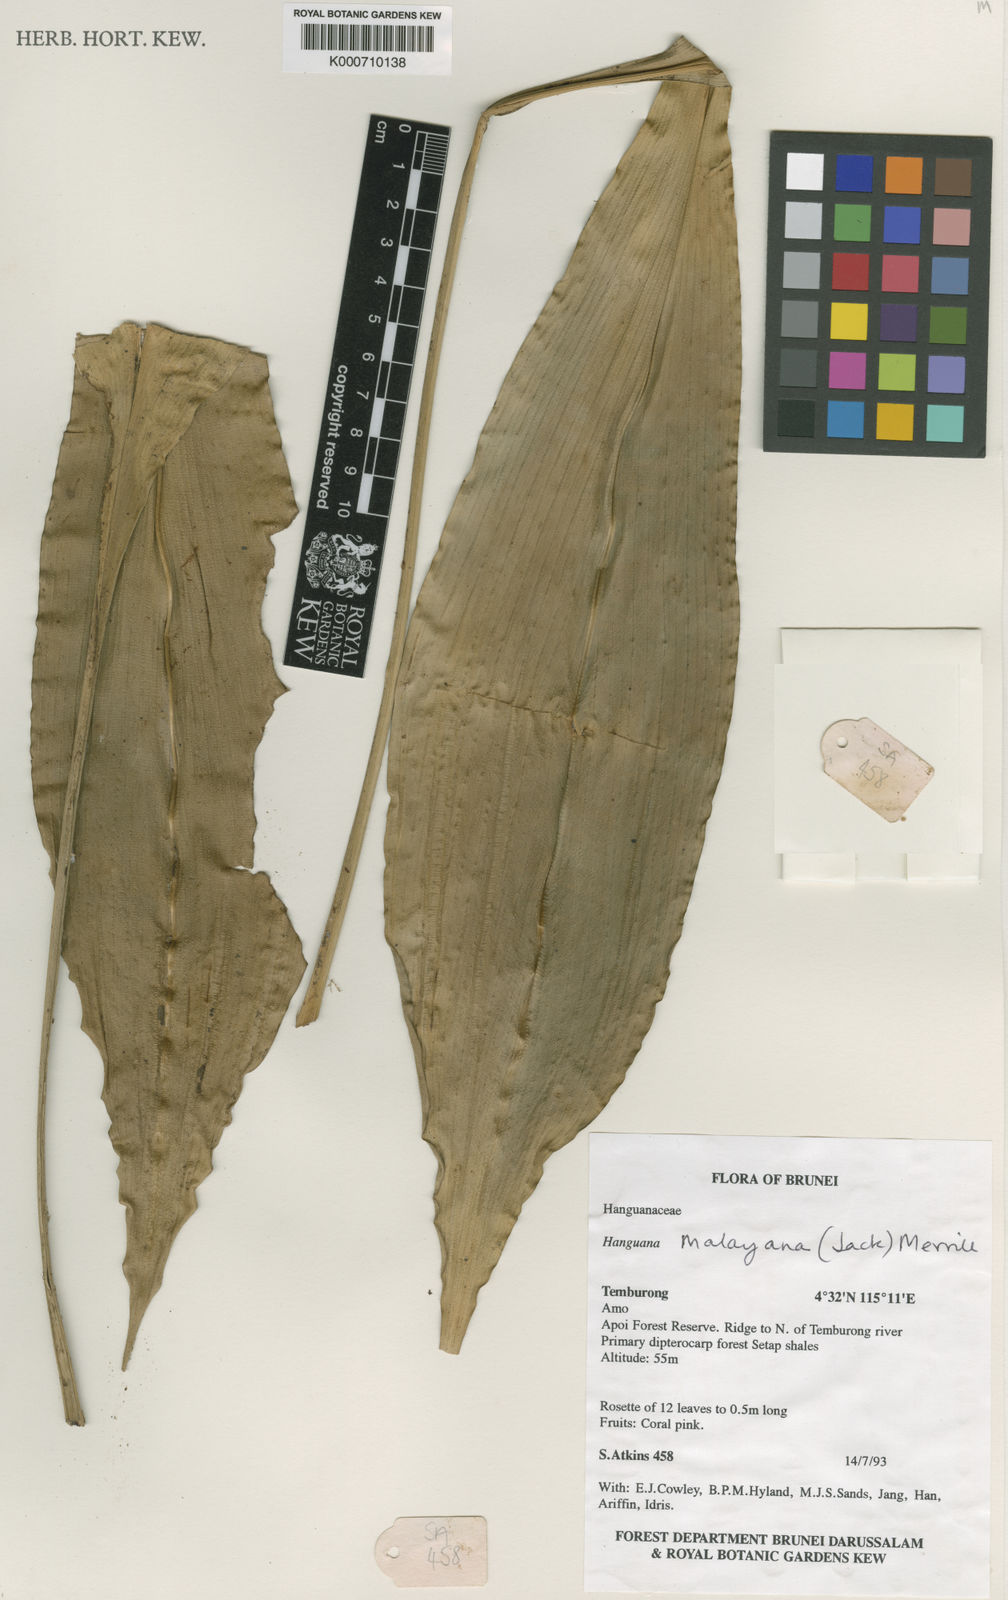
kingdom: Plantae
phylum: Tracheophyta
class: Liliopsida
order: Commelinales
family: Hanguanaceae
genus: Hanguana
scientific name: Hanguana malayana
